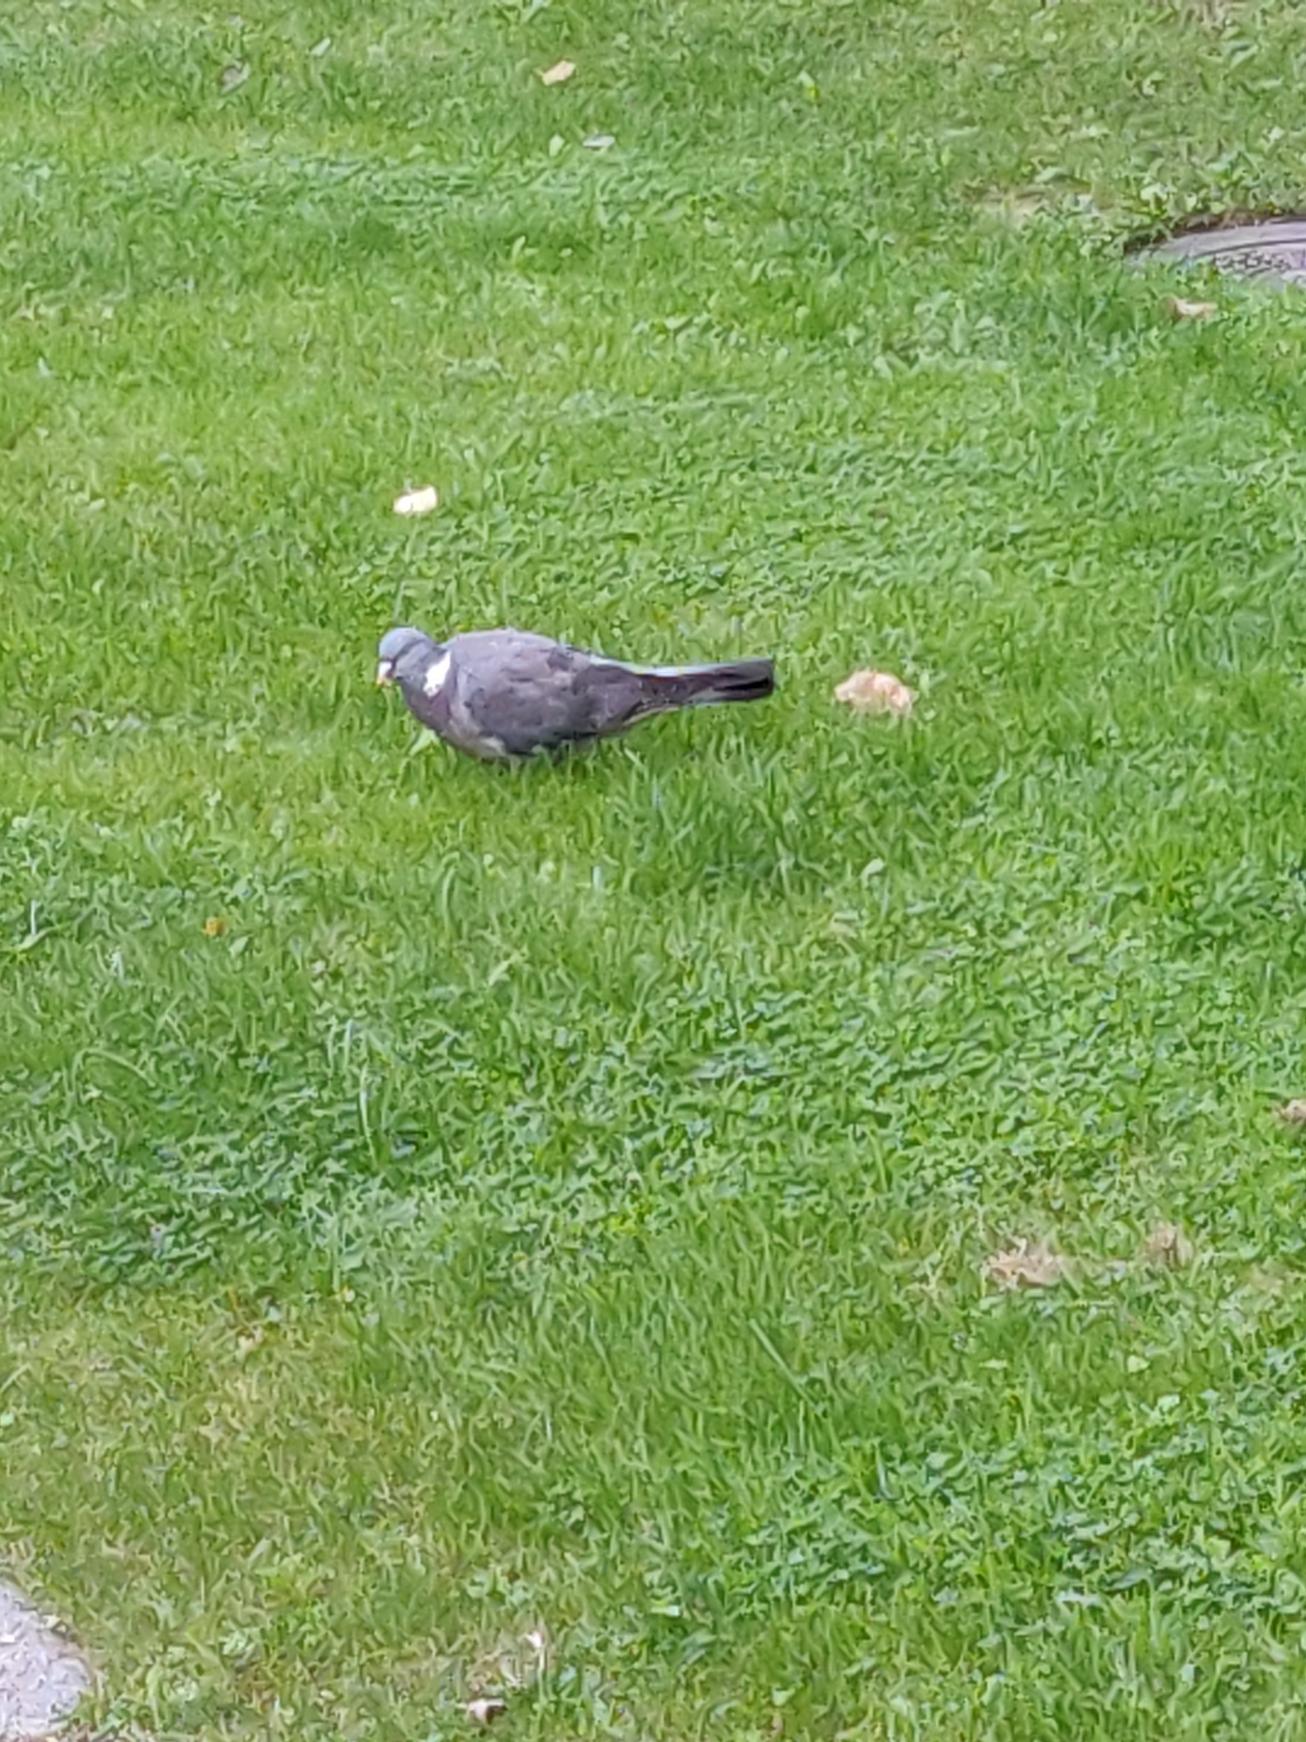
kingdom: Animalia
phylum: Chordata
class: Aves
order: Columbiformes
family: Columbidae
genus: Columba
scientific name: Columba palumbus
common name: Ringdue
